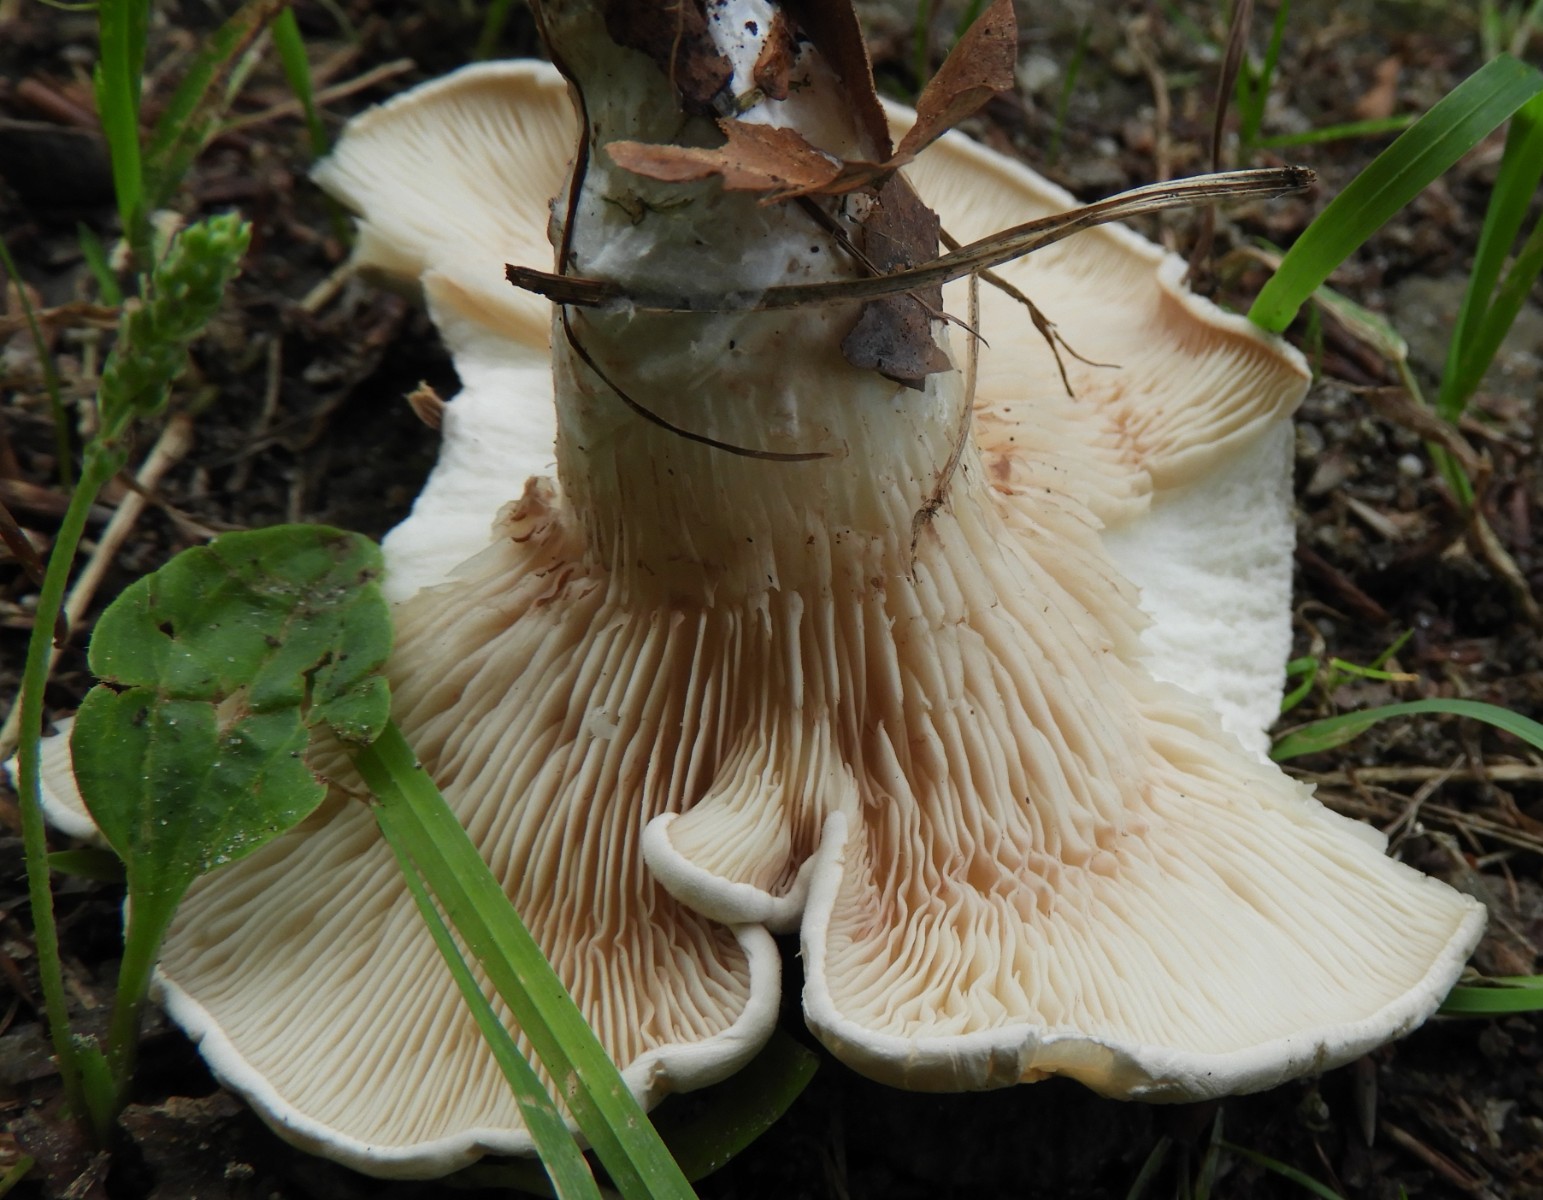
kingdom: Fungi
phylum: Basidiomycota
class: Agaricomycetes
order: Agaricales
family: Entolomataceae
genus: Clitopilus
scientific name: Clitopilus prunulus
